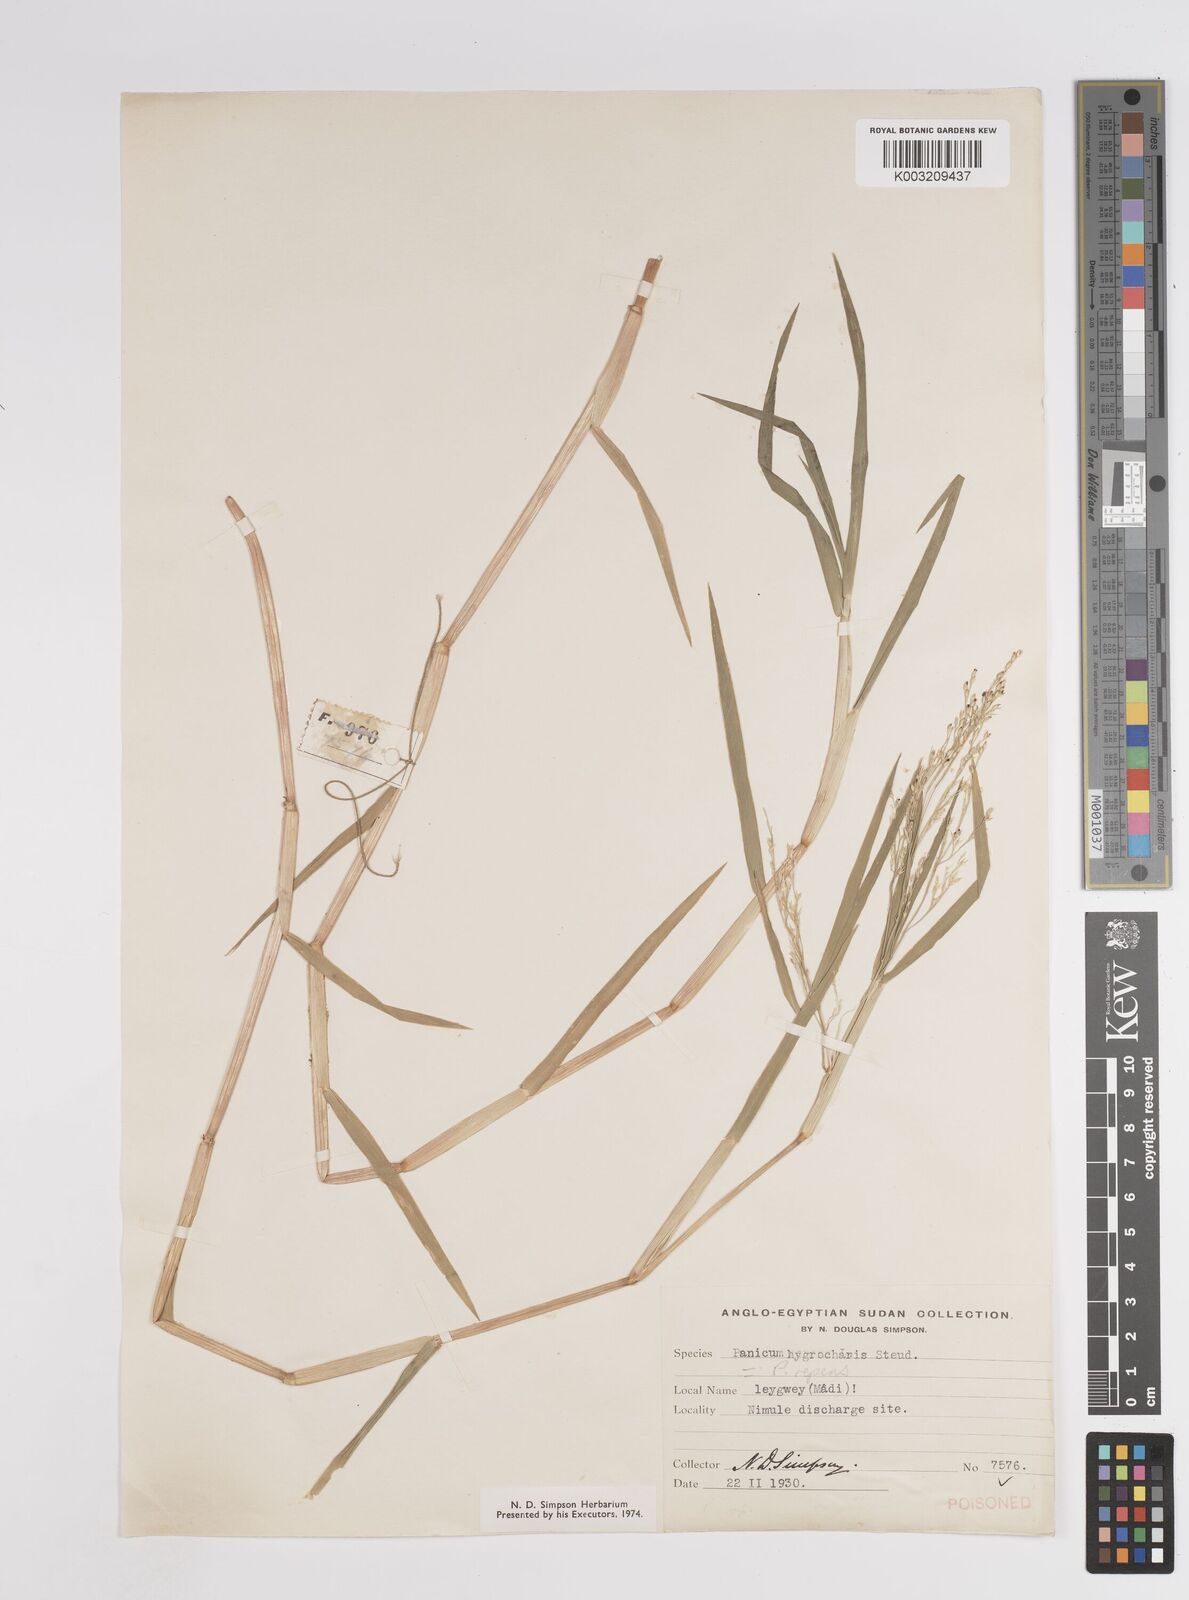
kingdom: Plantae
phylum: Tracheophyta
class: Liliopsida
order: Poales
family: Poaceae
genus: Panicum
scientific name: Panicum hygrocharis
